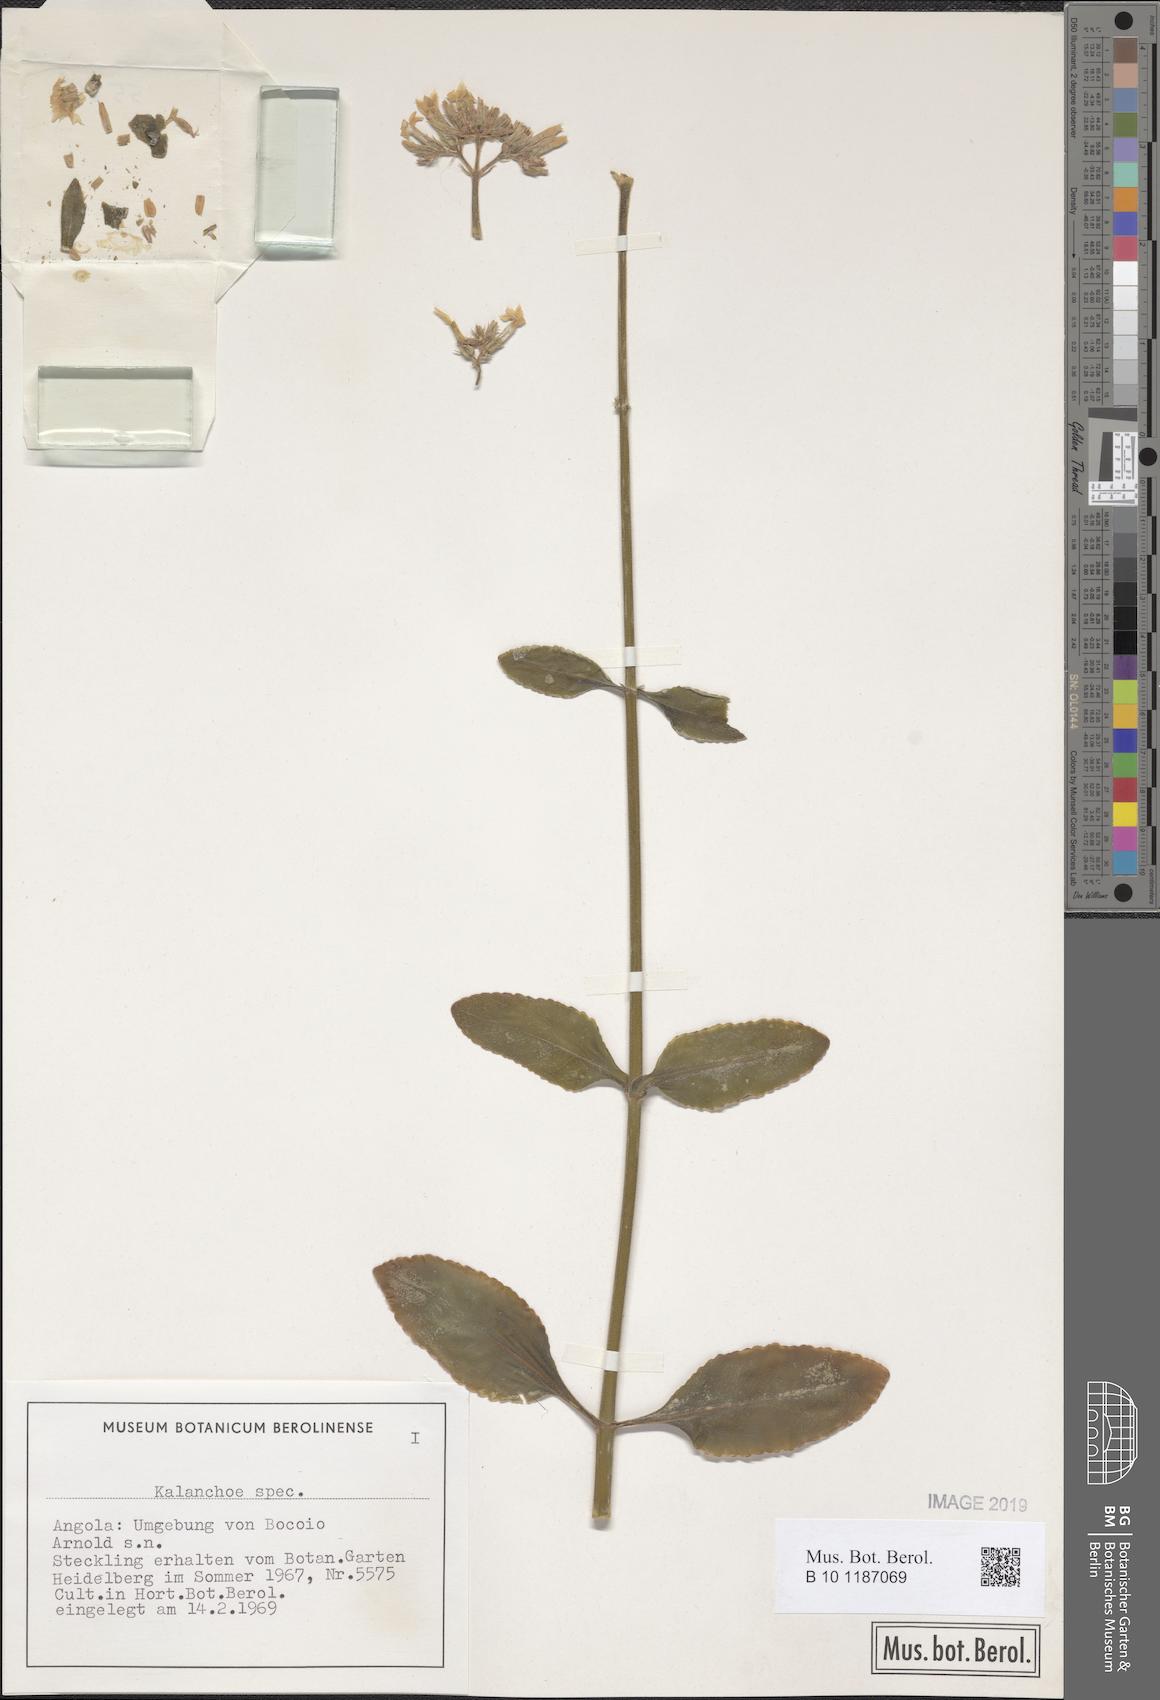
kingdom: Plantae
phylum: Tracheophyta
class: Magnoliopsida
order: Saxifragales
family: Crassulaceae
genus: Kalanchoe
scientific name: Kalanchoe
